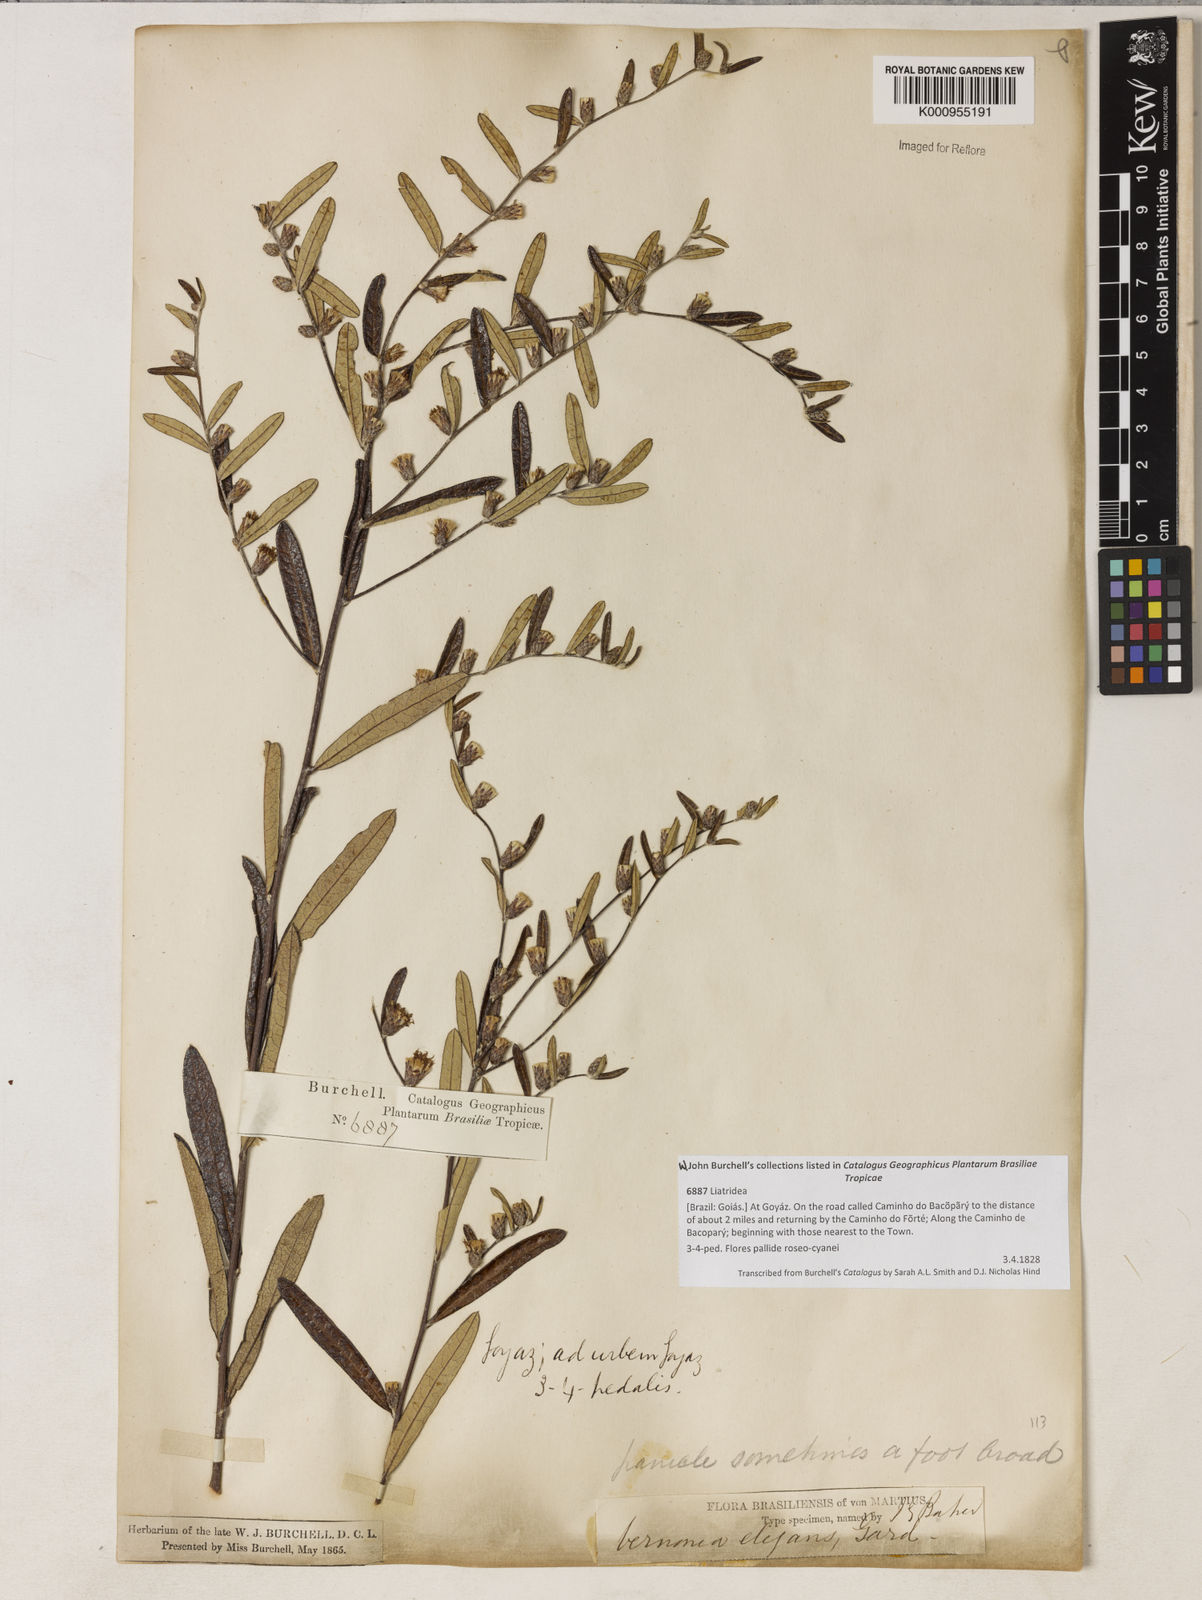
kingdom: Plantae
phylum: Tracheophyta
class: Magnoliopsida
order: Asterales
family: Asteraceae
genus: Lessingianthus
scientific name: Lessingianthus elegans
